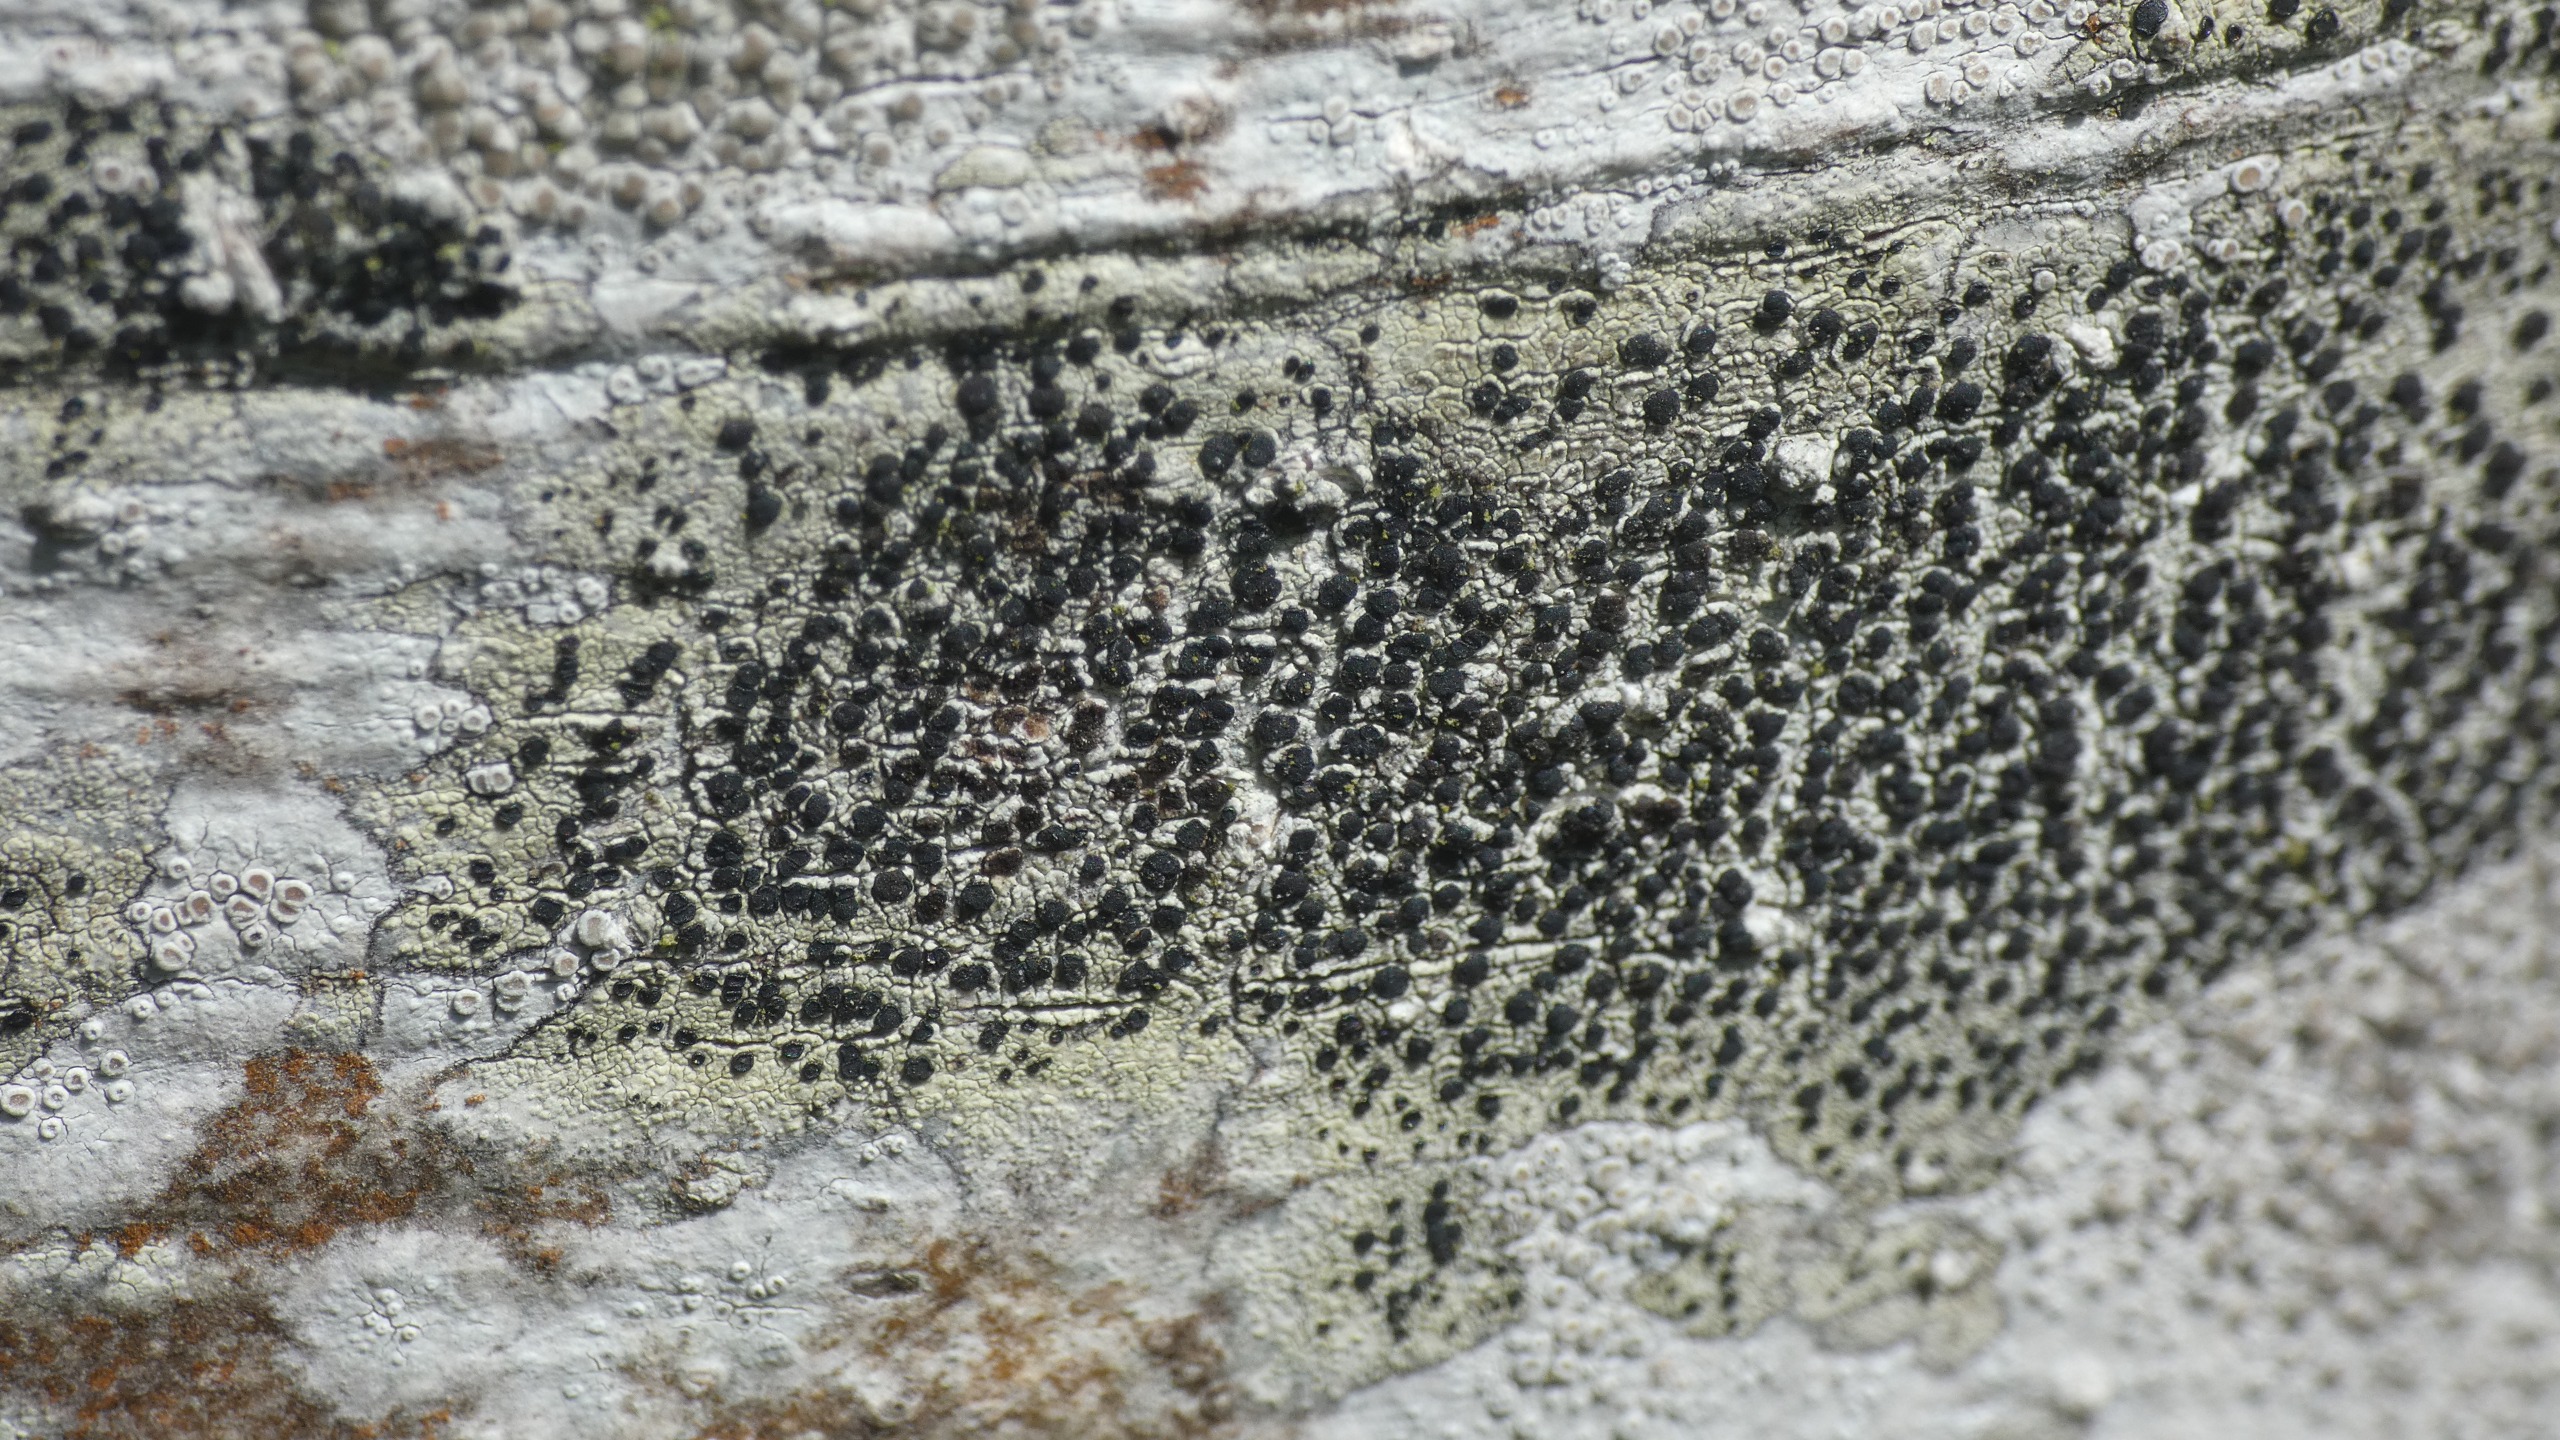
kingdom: Fungi
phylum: Ascomycota
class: Lecanoromycetes
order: Lecanorales
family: Lecanoraceae
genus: Lecidella
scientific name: Lecidella elaeochroma
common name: Grågrøn skivelav
